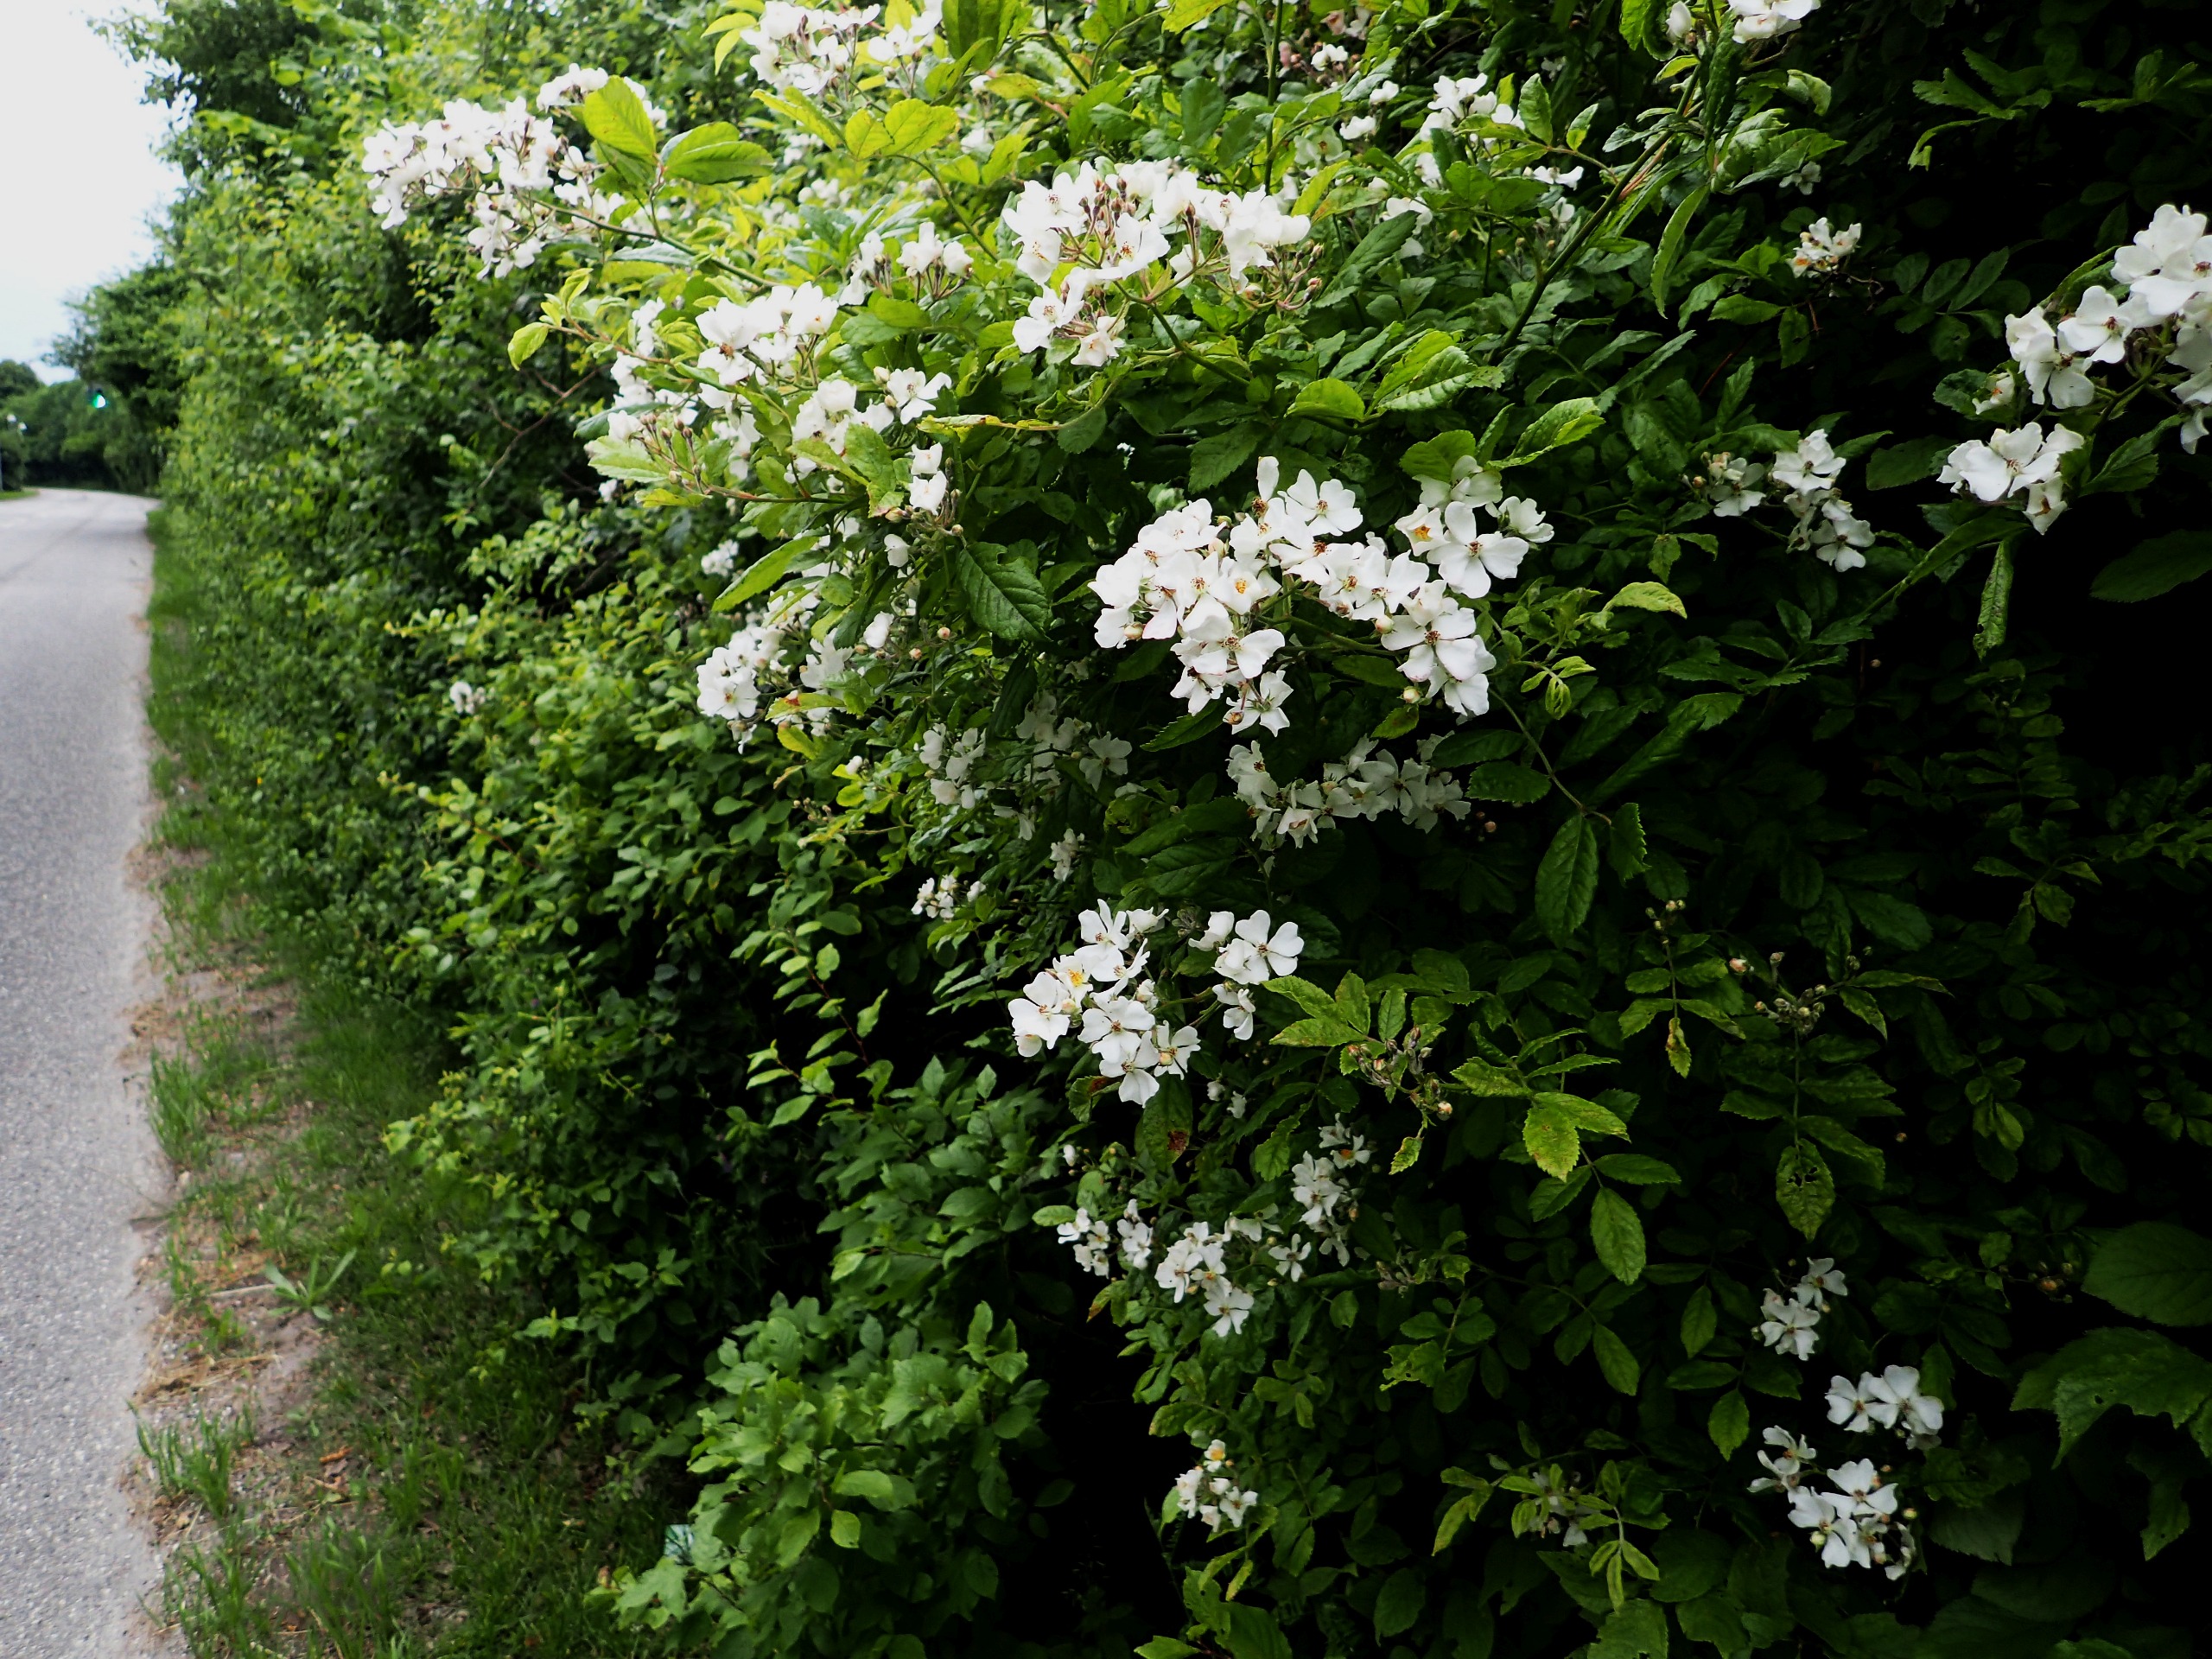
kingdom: Plantae
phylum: Tracheophyta
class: Magnoliopsida
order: Rosales
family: Rosaceae
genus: Rosa
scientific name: Rosa multiflora
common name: Mangeblomstret rose
